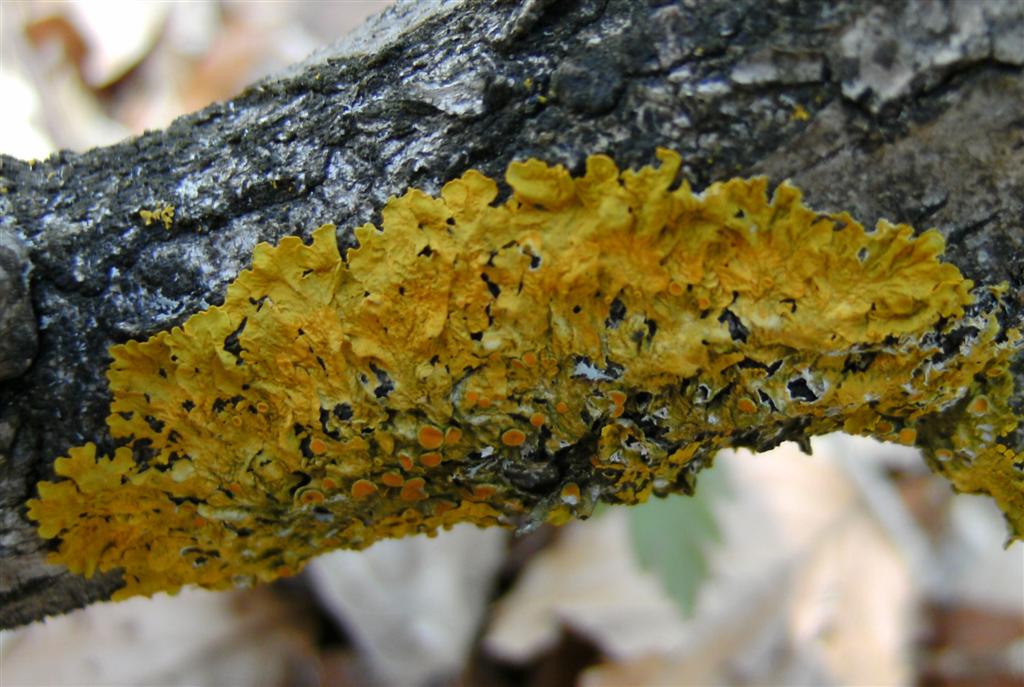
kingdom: Fungi
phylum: Ascomycota
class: Lecanoromycetes
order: Teloschistales
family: Teloschistaceae
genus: Xanthoria
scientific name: Xanthoria parietina
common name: almindelig væggelav
